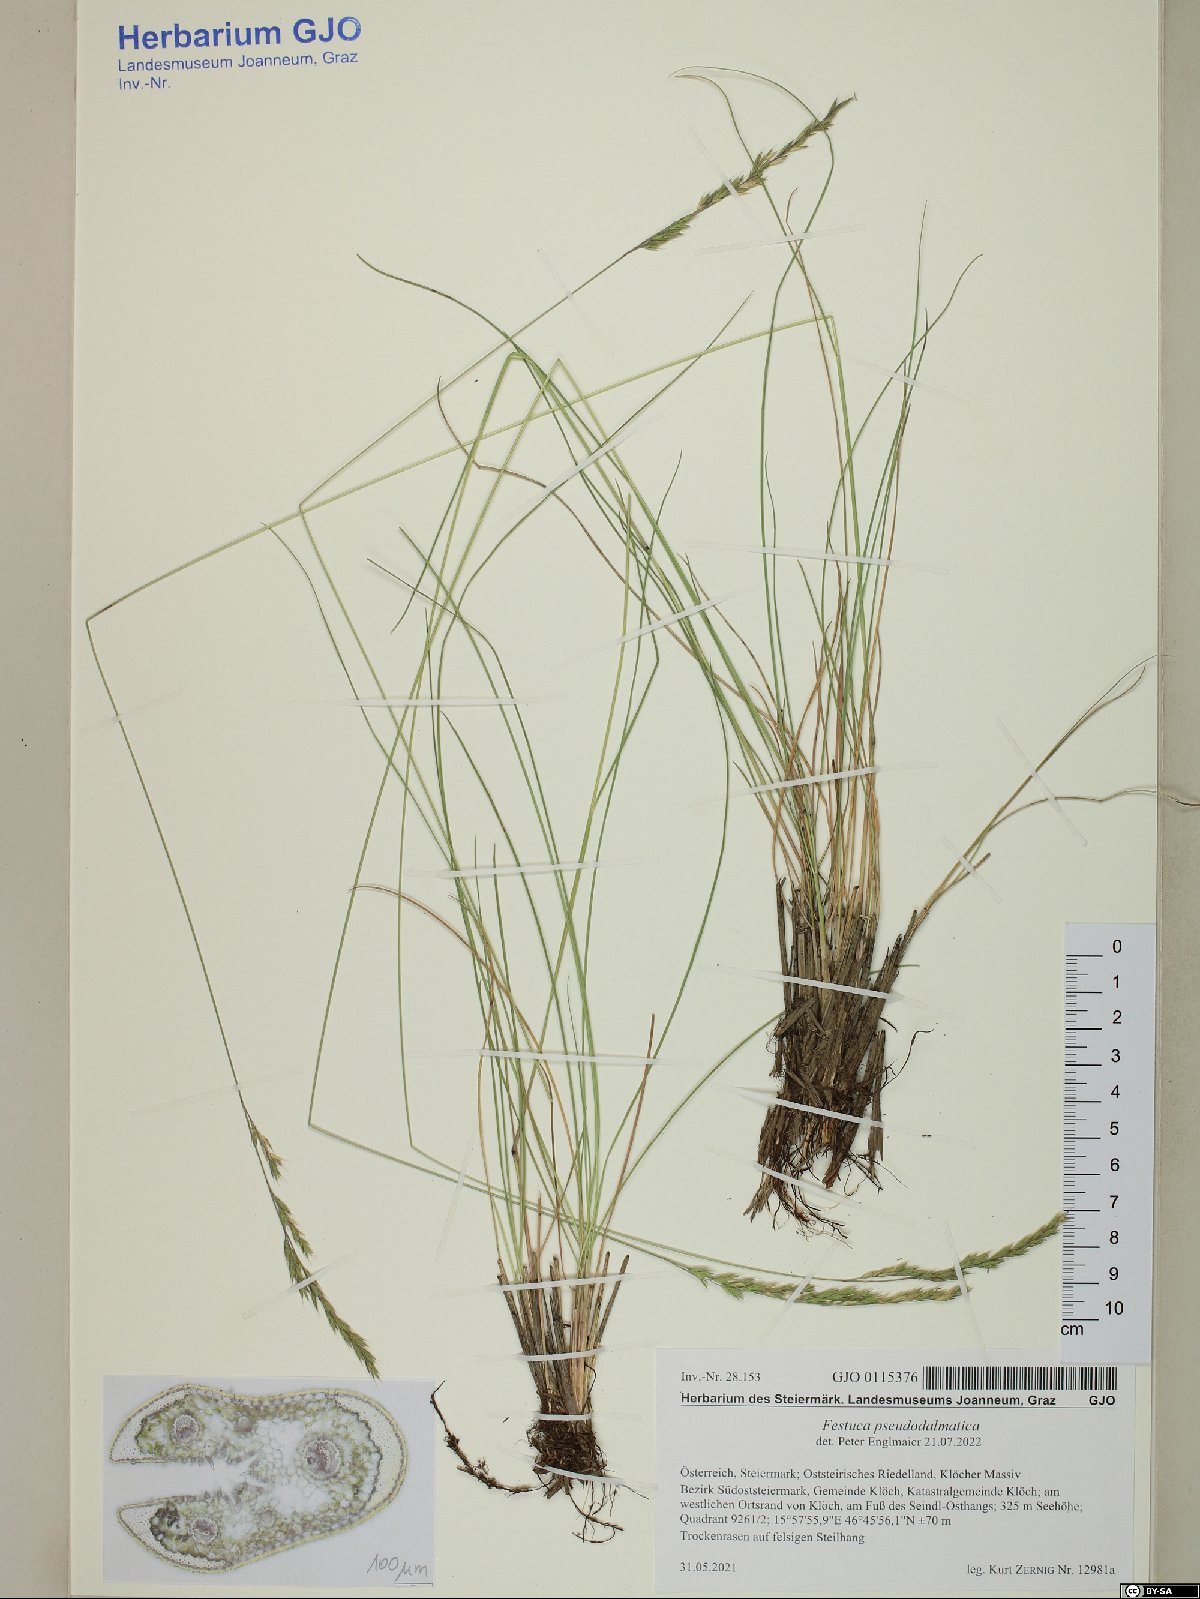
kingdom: Plantae
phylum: Tracheophyta
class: Liliopsida
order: Poales
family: Poaceae
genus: Festuca
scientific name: Festuca pseudodalmatica
